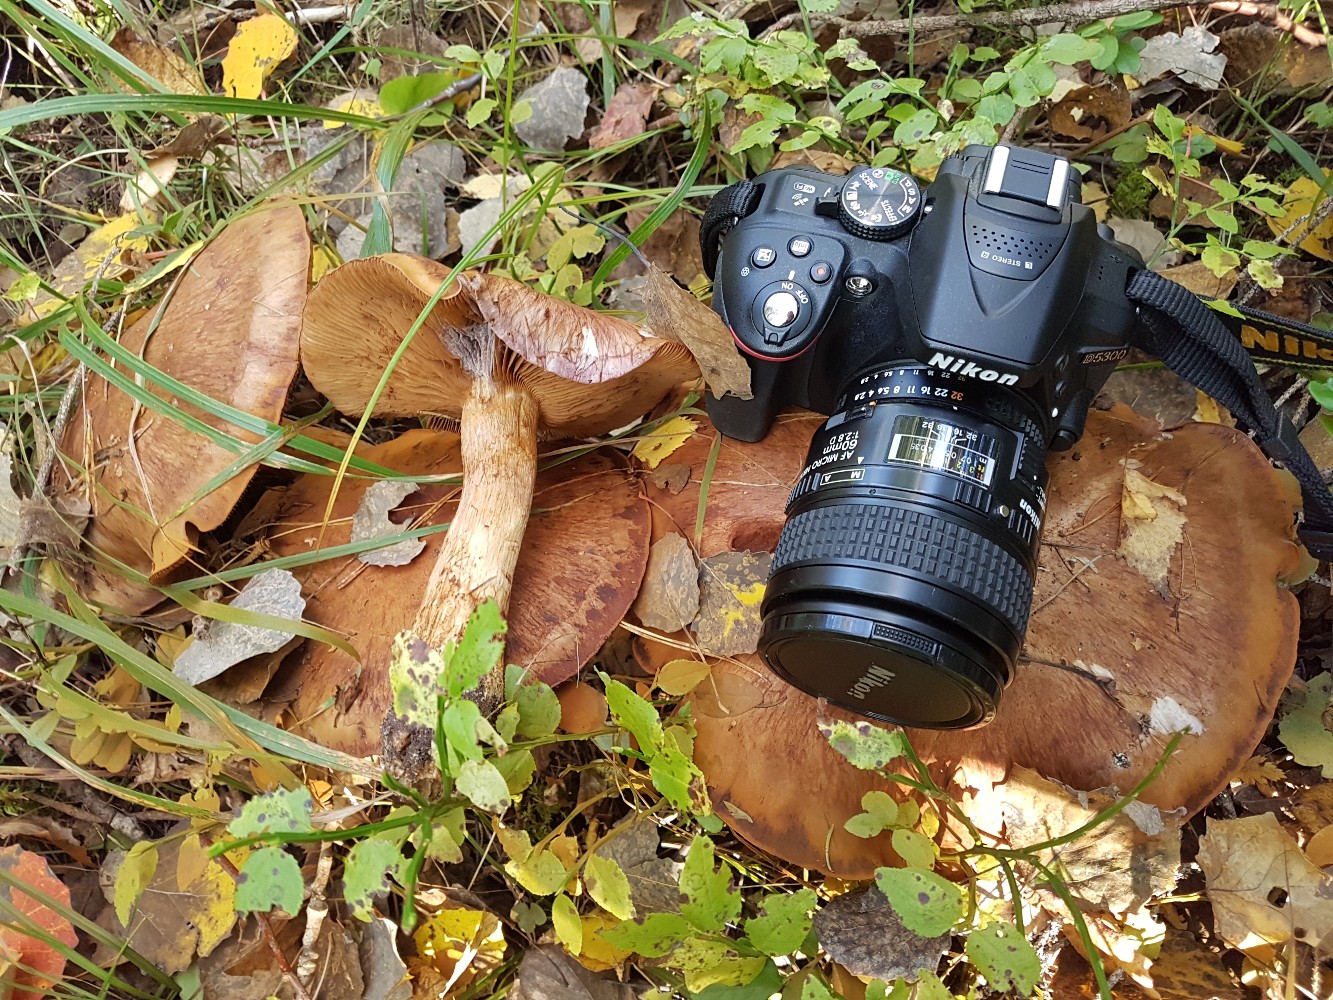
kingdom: Fungi
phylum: Basidiomycota
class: Agaricomycetes
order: Agaricales
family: Cortinariaceae
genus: Cortinarius
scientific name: Cortinarius variecolor
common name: violetagtig slørhat
